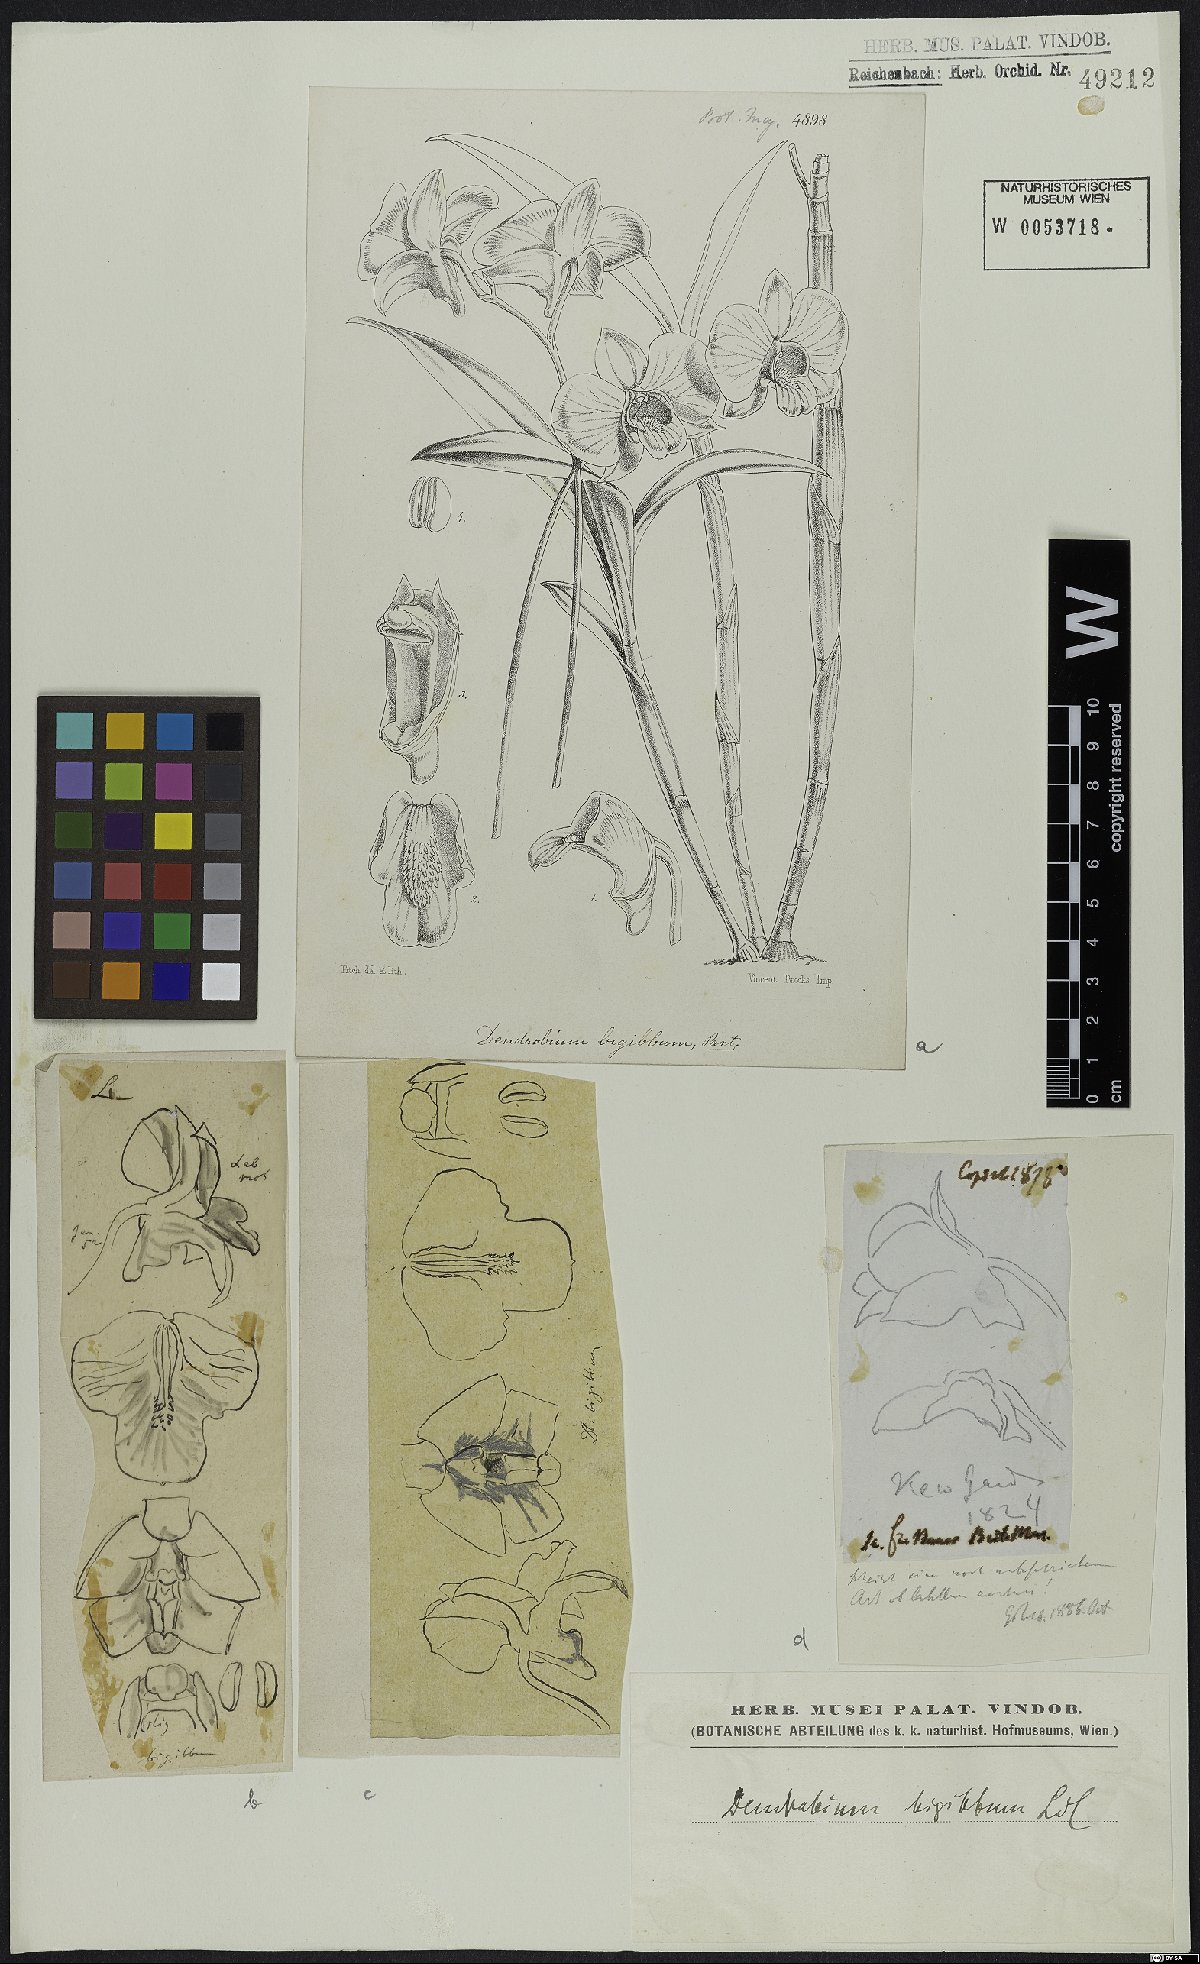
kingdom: Plantae
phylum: Tracheophyta
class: Liliopsida
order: Asparagales
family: Orchidaceae
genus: Dendrobium
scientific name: Dendrobium bigibbum
